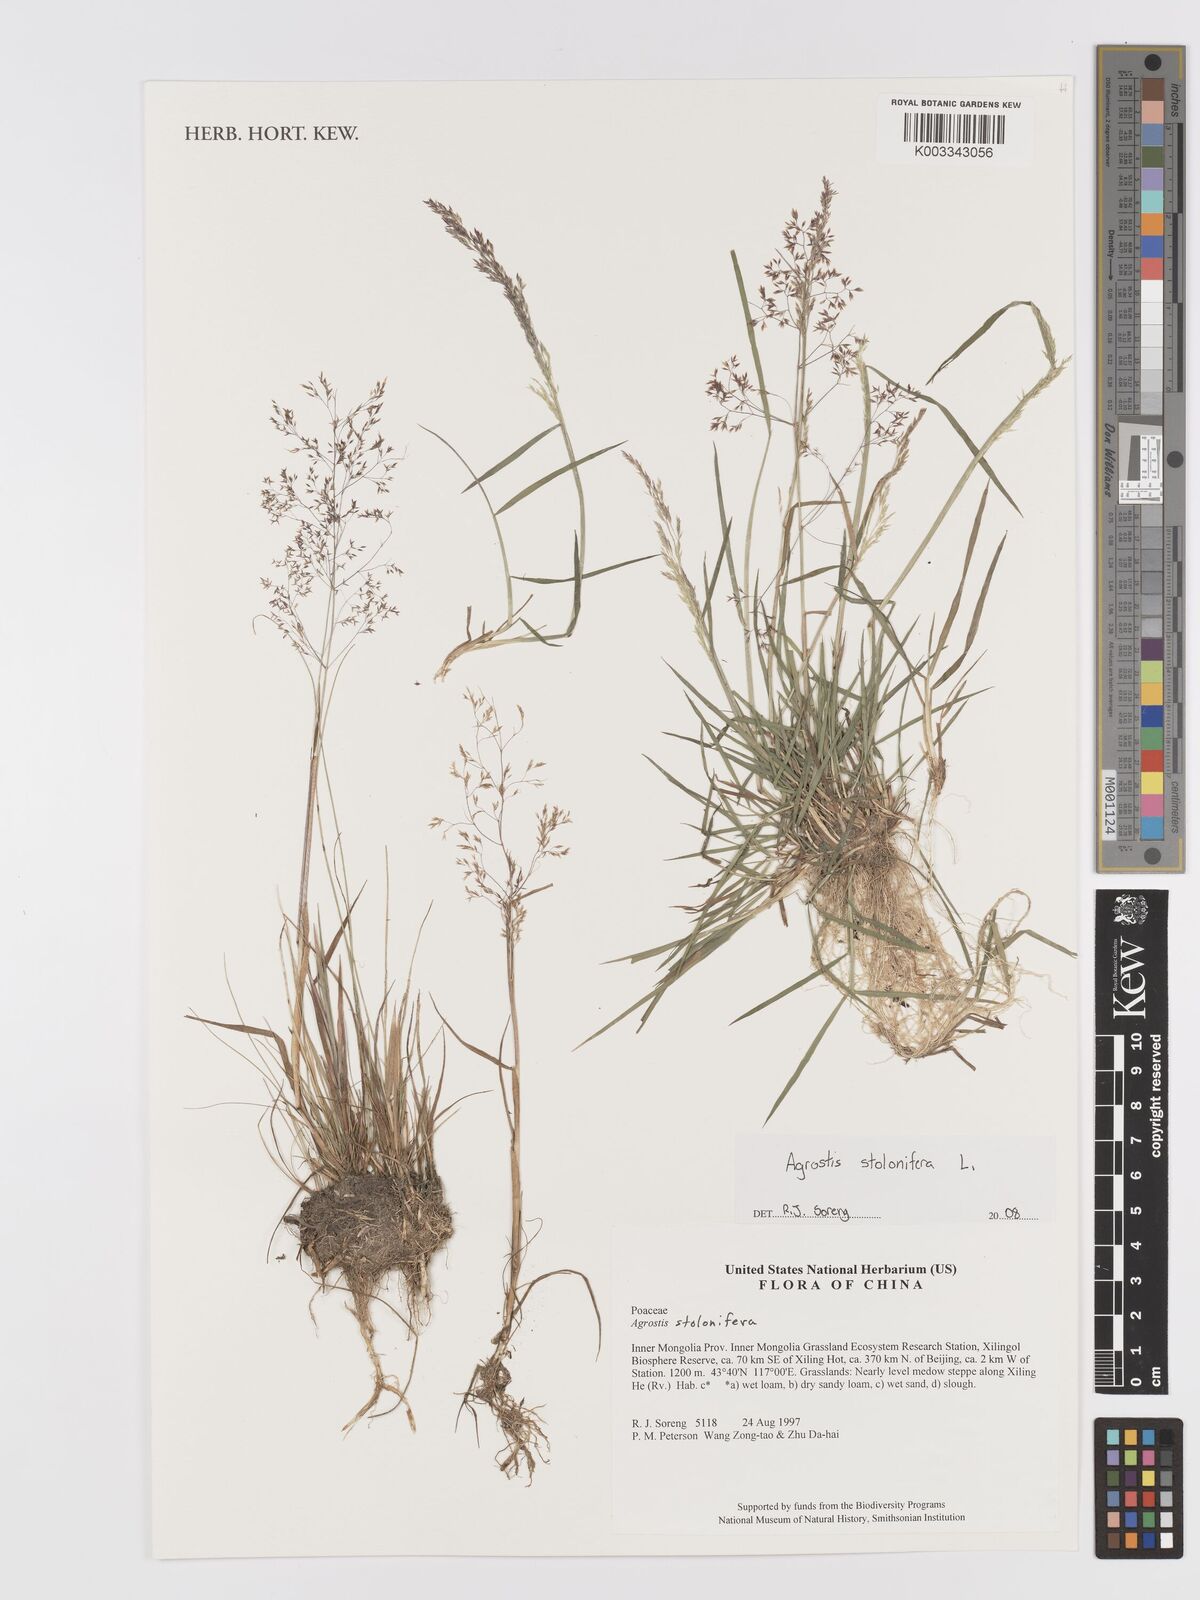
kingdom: Plantae
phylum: Tracheophyta
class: Liliopsida
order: Poales
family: Poaceae
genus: Agrostis
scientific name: Agrostis
